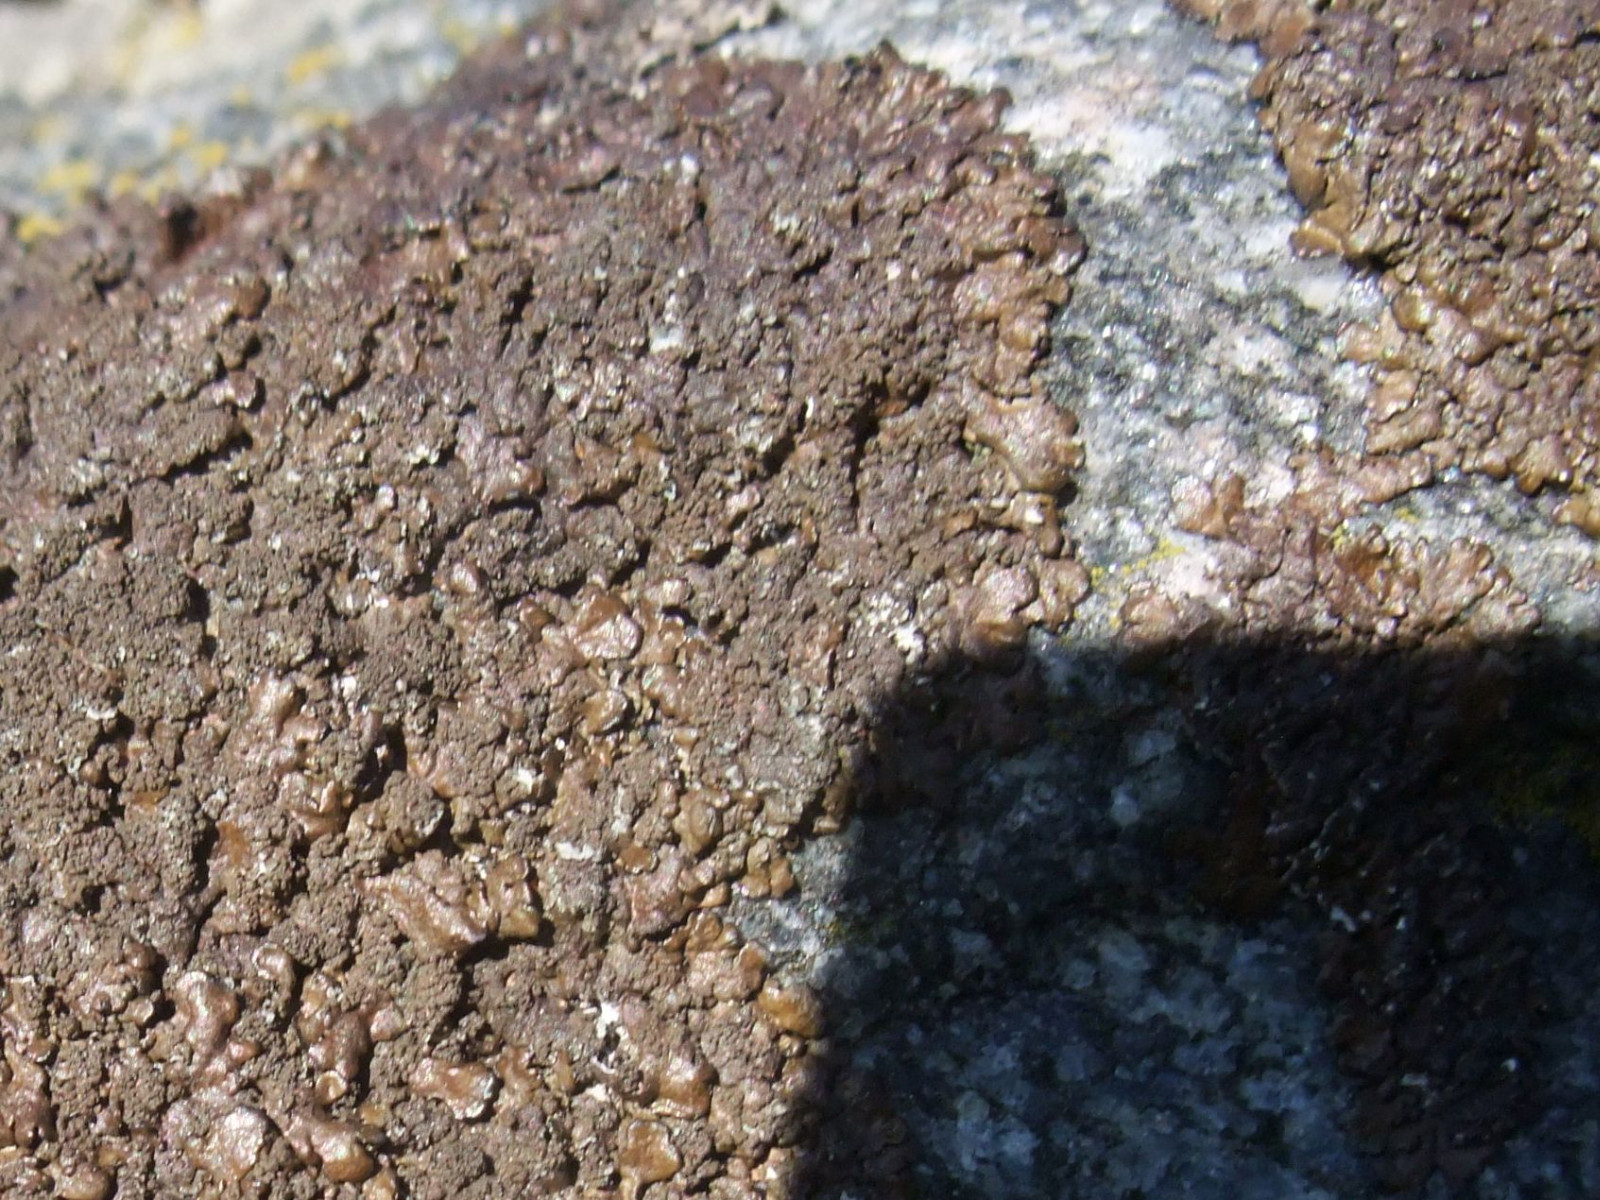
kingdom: Fungi
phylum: Ascomycota
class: Lecanoromycetes
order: Lecanorales
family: Parmeliaceae
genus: Xanthoparmelia
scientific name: Xanthoparmelia verruculifera
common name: småknoppet skållav
